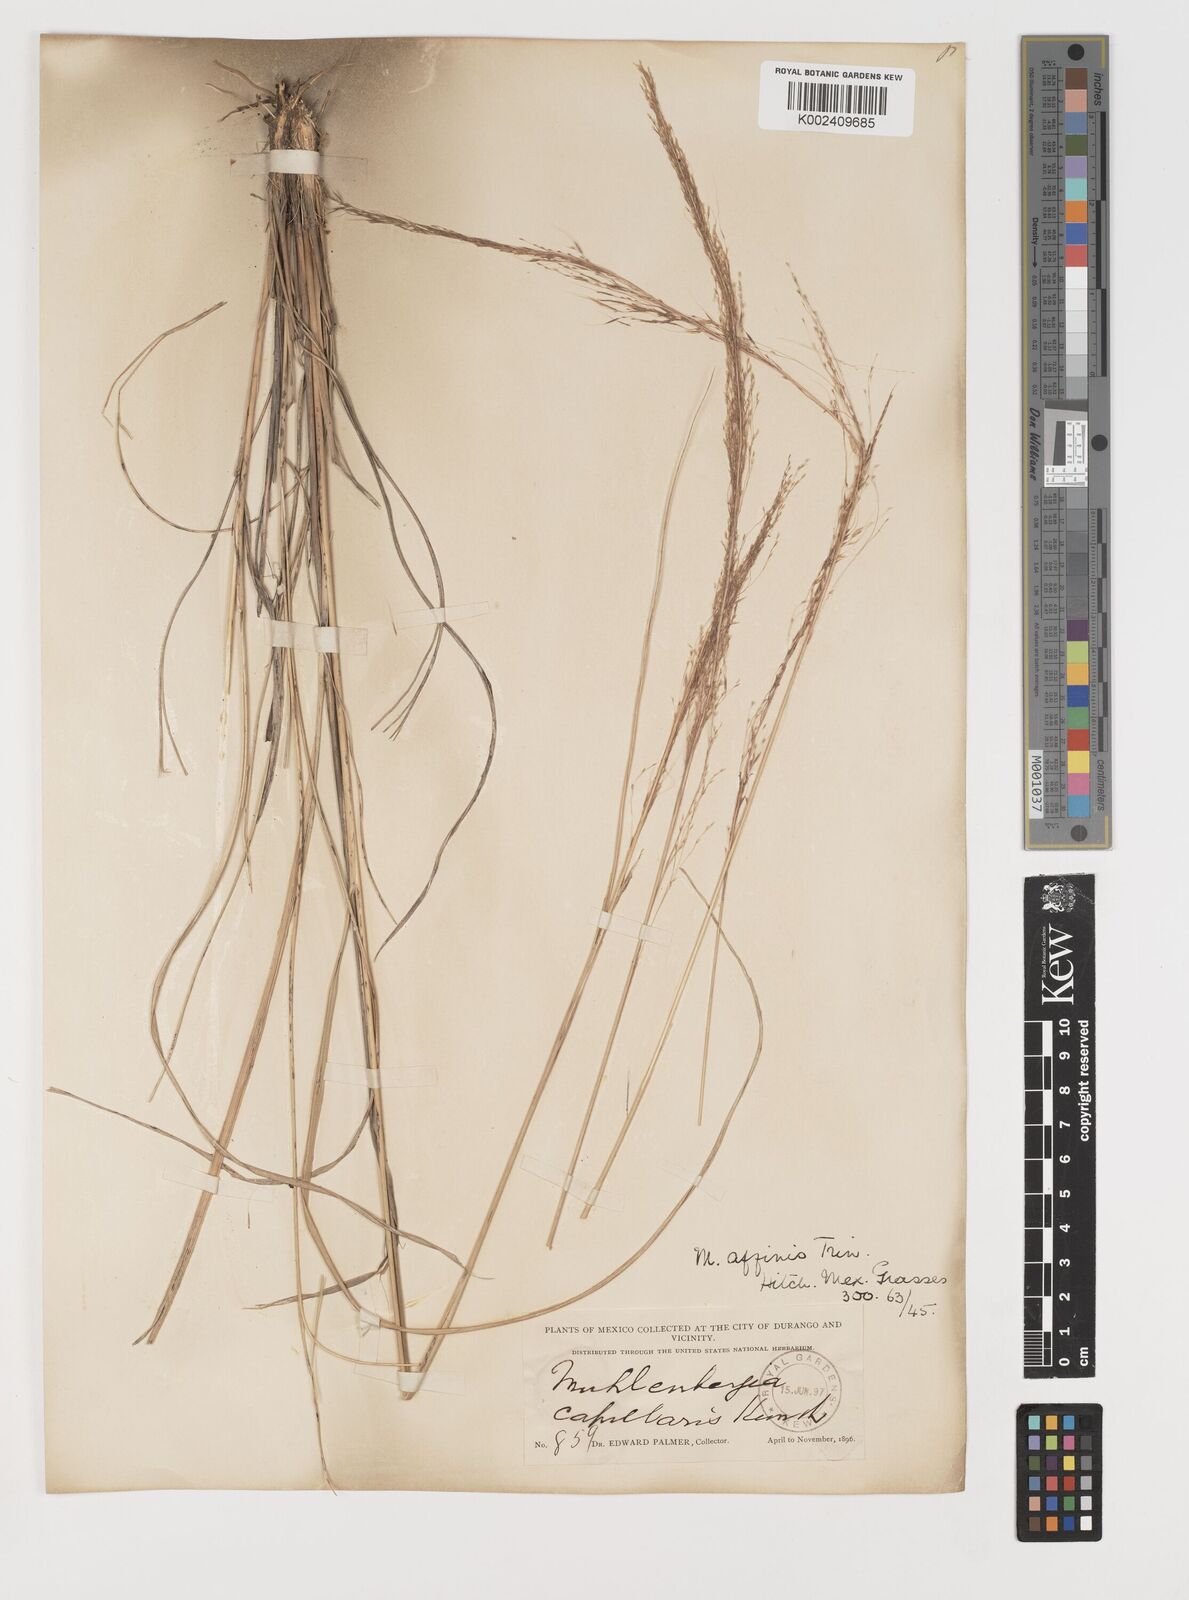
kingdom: Plantae
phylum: Tracheophyta
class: Liliopsida
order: Poales
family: Poaceae
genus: Muhlenbergia
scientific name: Muhlenbergia rigida
